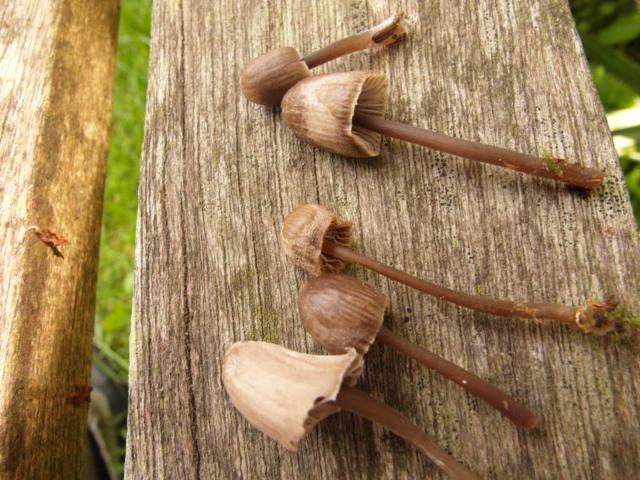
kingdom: Fungi
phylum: Basidiomycota
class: Agaricomycetes
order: Agaricales
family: Mycenaceae
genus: Mycena
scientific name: Mycena abramsii
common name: sommer-huesvamp
